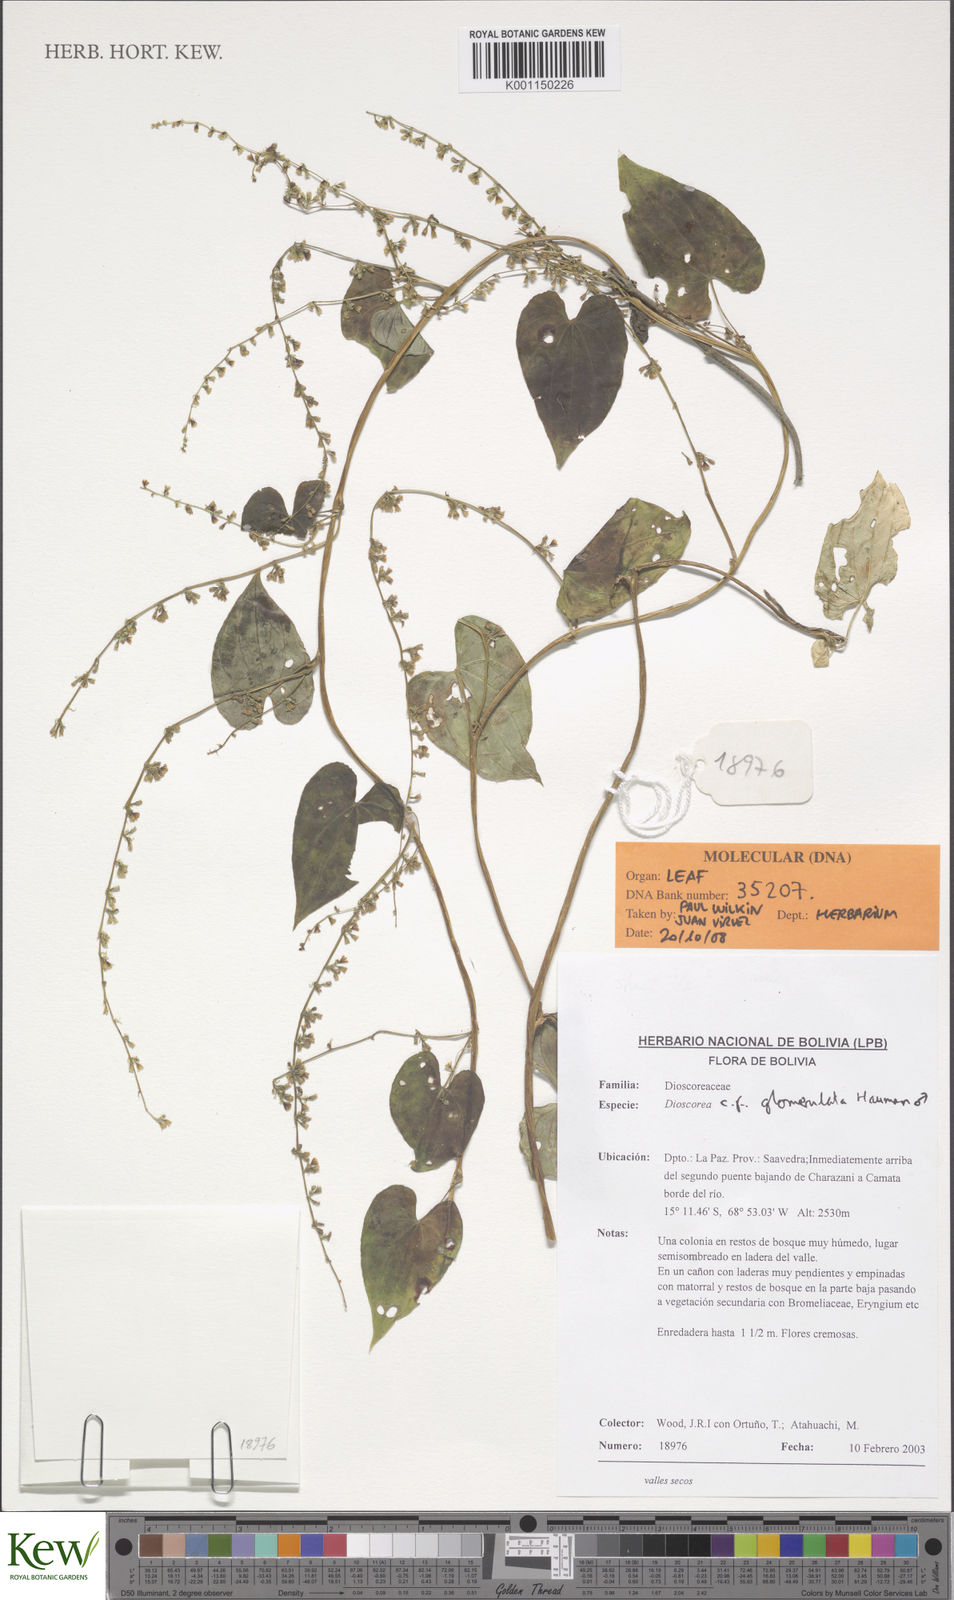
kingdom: Plantae
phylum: Tracheophyta
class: Liliopsida
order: Dioscoreales
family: Dioscoreaceae
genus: Dioscorea
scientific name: Dioscorea
